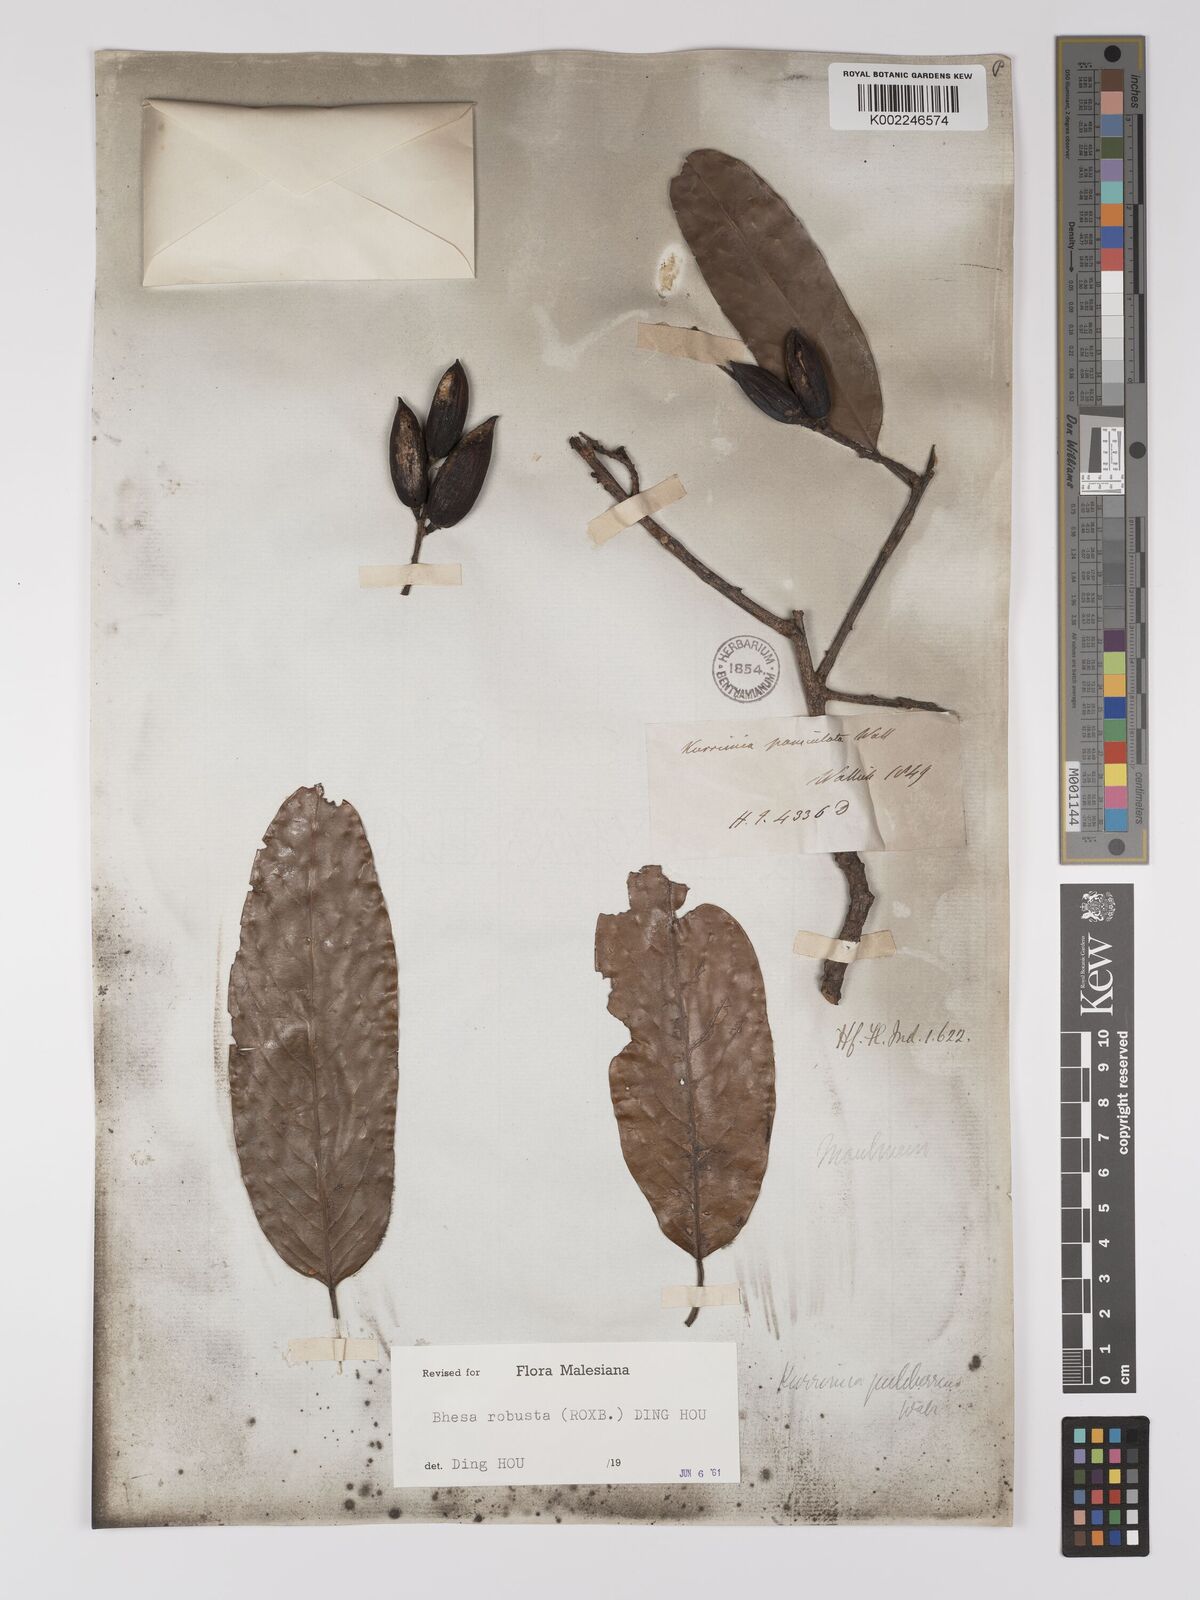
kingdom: Plantae
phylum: Tracheophyta
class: Magnoliopsida
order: Malpighiales
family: Centroplacaceae
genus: Bhesa
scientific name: Bhesa robusta
